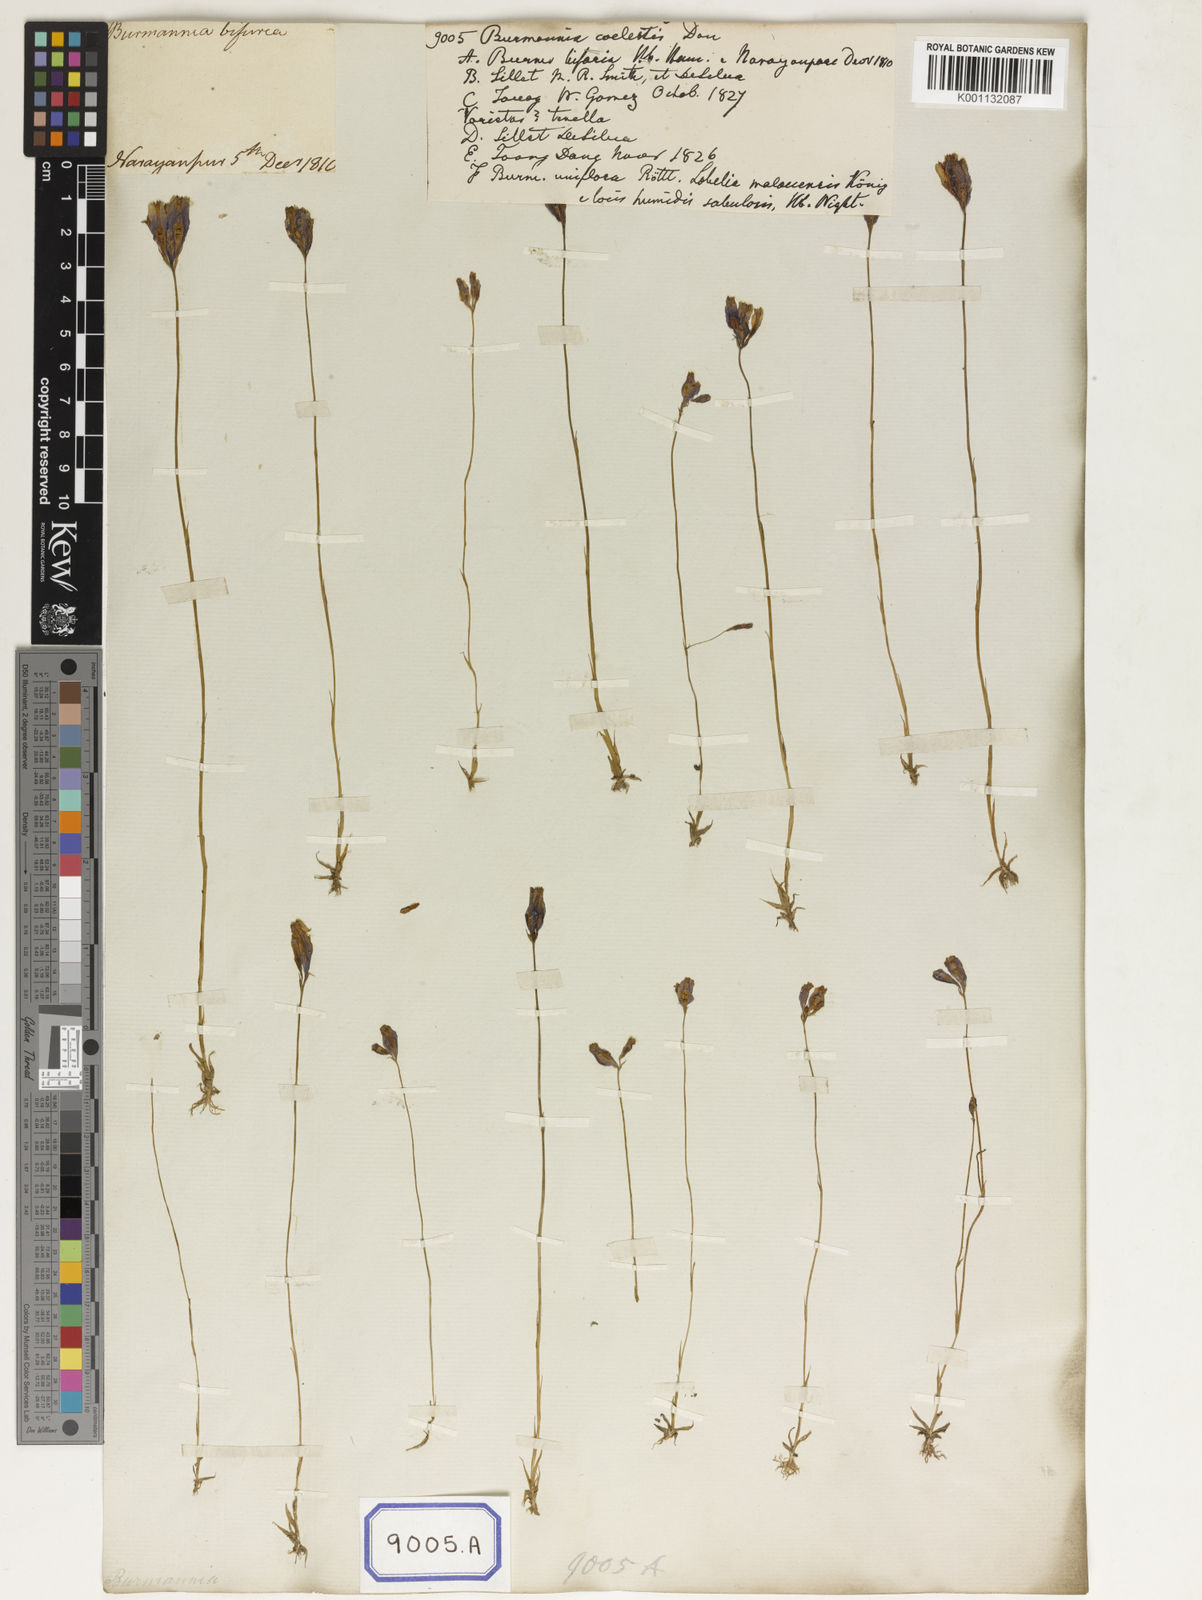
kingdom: Plantae
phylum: Tracheophyta
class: Liliopsida
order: Dioscoreales
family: Burmanniaceae
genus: Burmannia
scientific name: Burmannia coelestis
